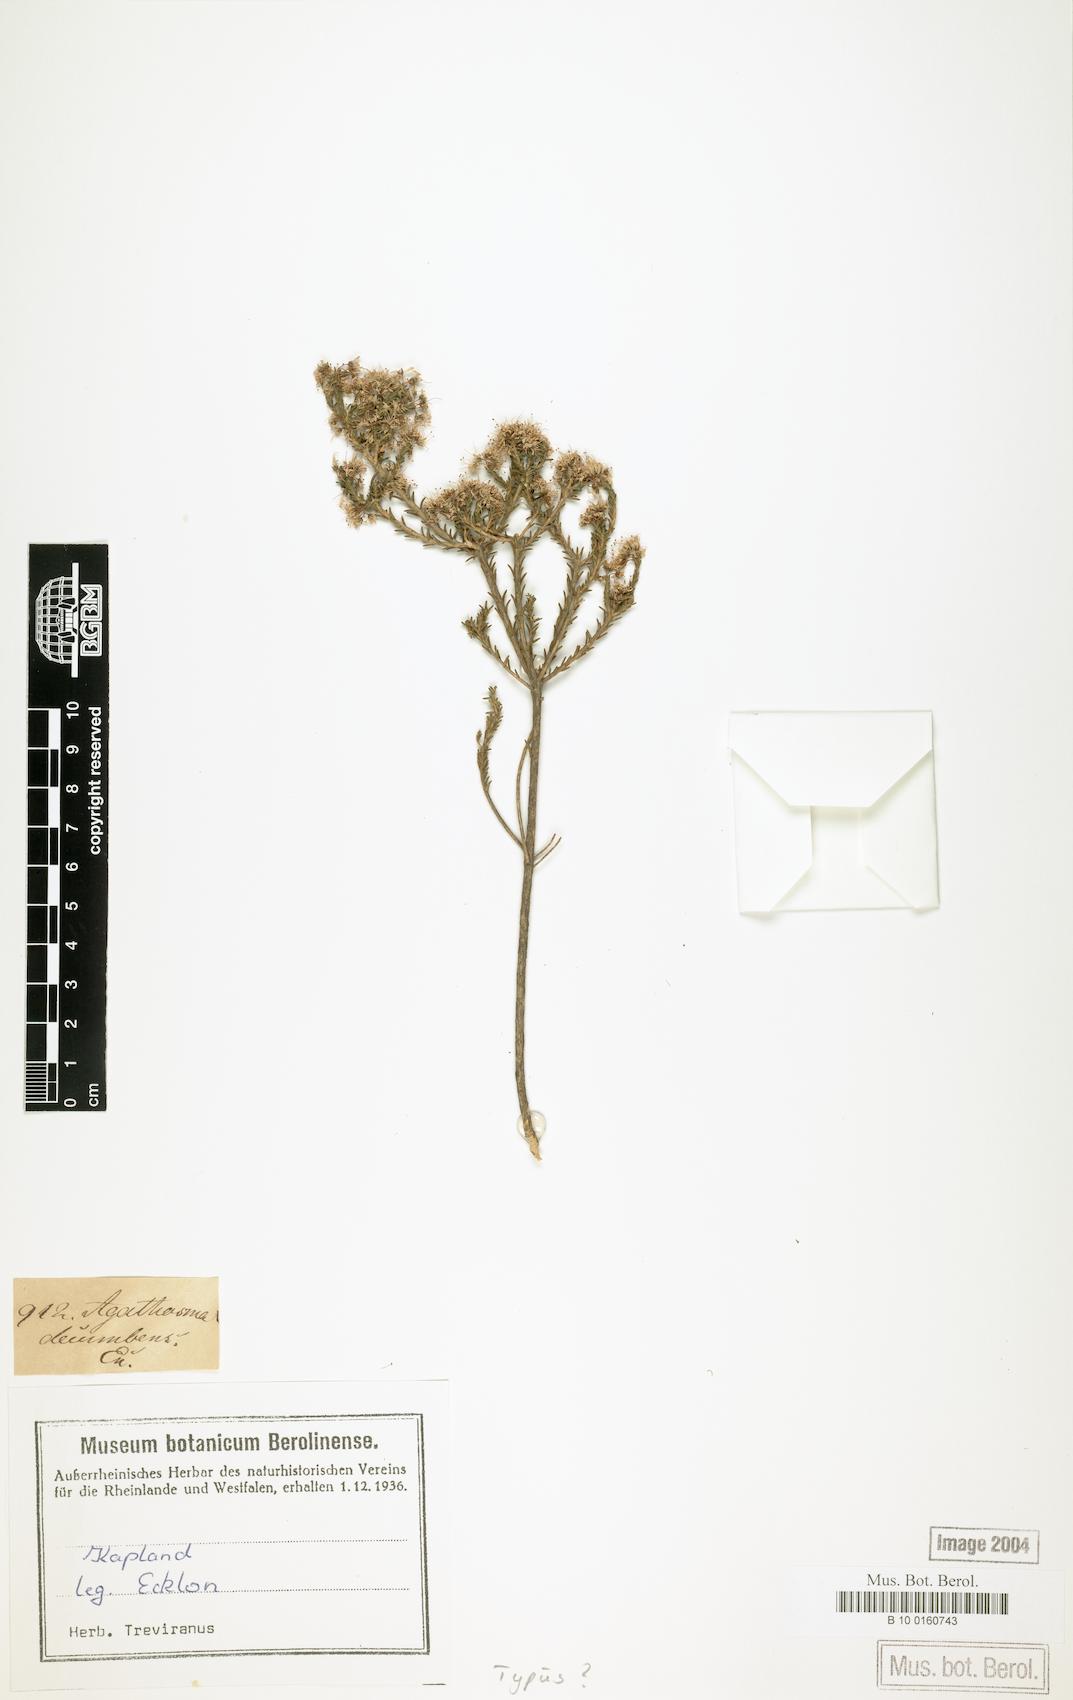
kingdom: Plantae
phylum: Tracheophyta
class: Magnoliopsida
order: Sapindales
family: Rutaceae
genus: Agathosma
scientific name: Agathosma capensis
